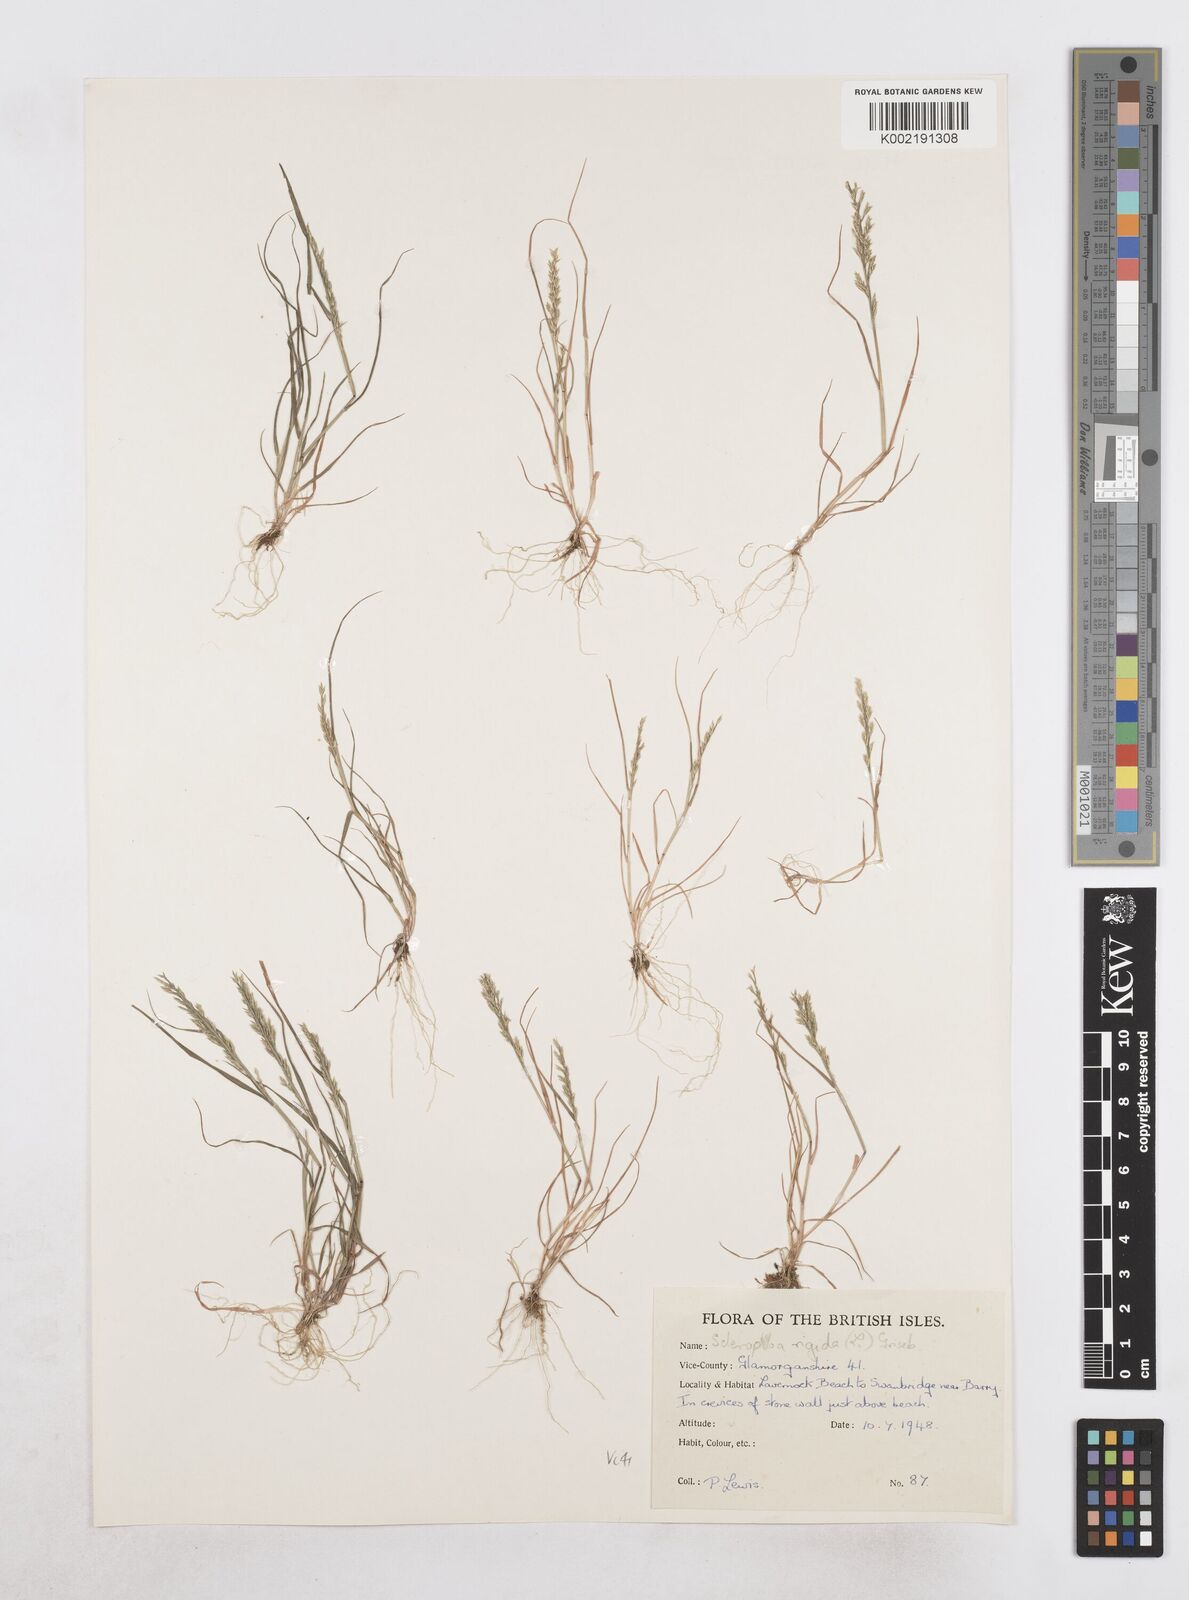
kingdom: Plantae
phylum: Tracheophyta
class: Liliopsida
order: Poales
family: Poaceae
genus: Catapodium
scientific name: Catapodium rigidum
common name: Fern-grass
